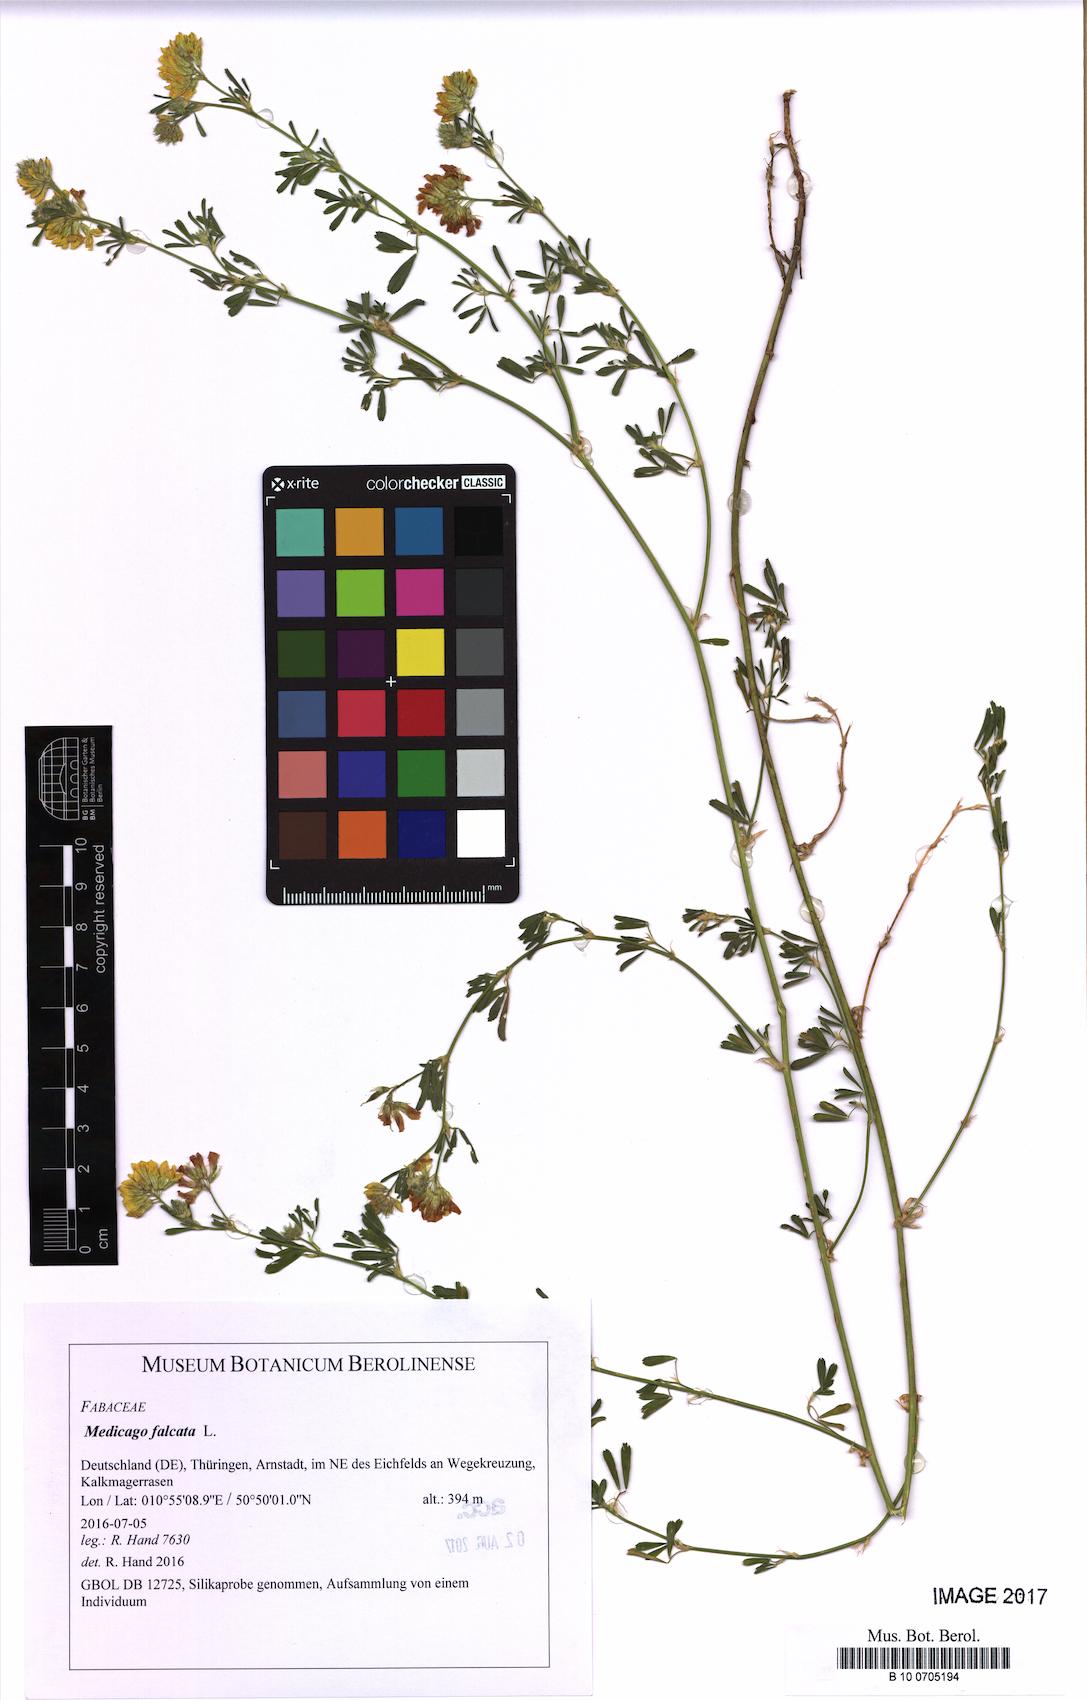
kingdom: Plantae
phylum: Tracheophyta
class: Magnoliopsida
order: Fabales
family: Fabaceae
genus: Medicago
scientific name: Medicago falcata
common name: Sickle medick
